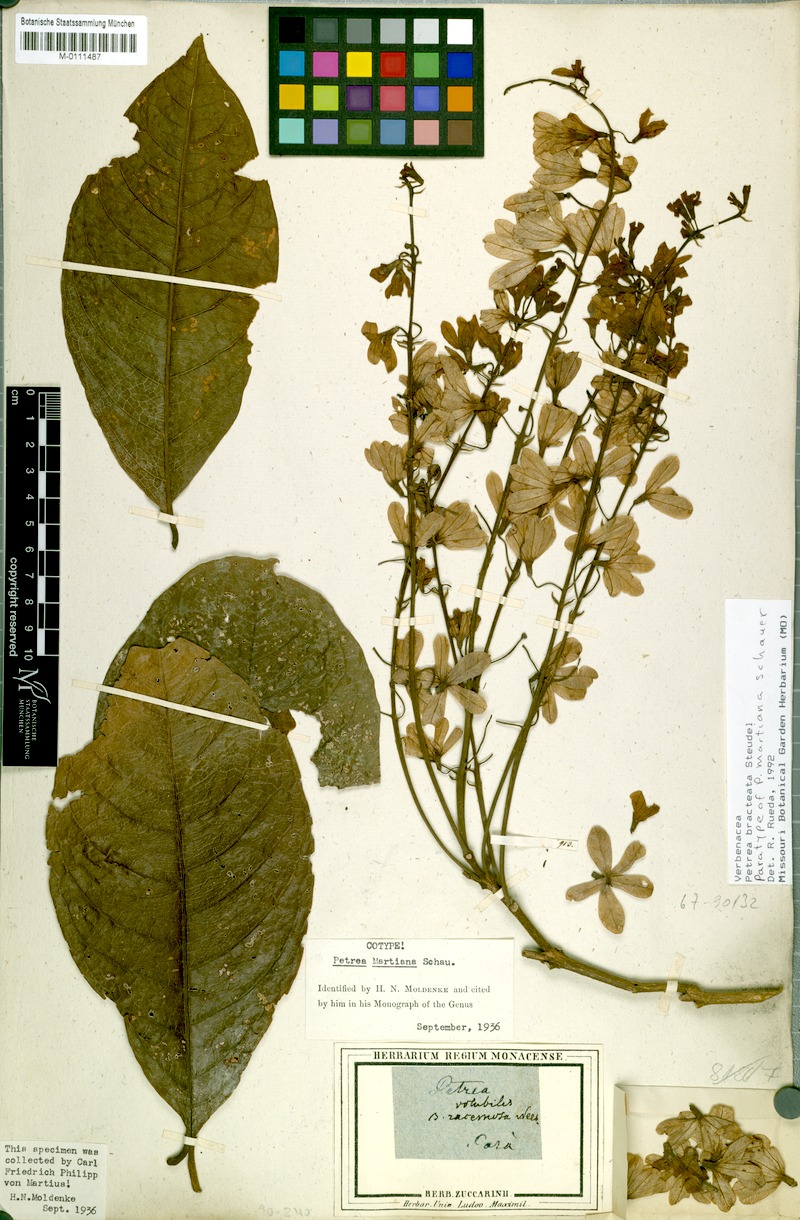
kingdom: Plantae
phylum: Tracheophyta
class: Magnoliopsida
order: Lamiales
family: Verbenaceae
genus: Petrea
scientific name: Petrea bracteata
